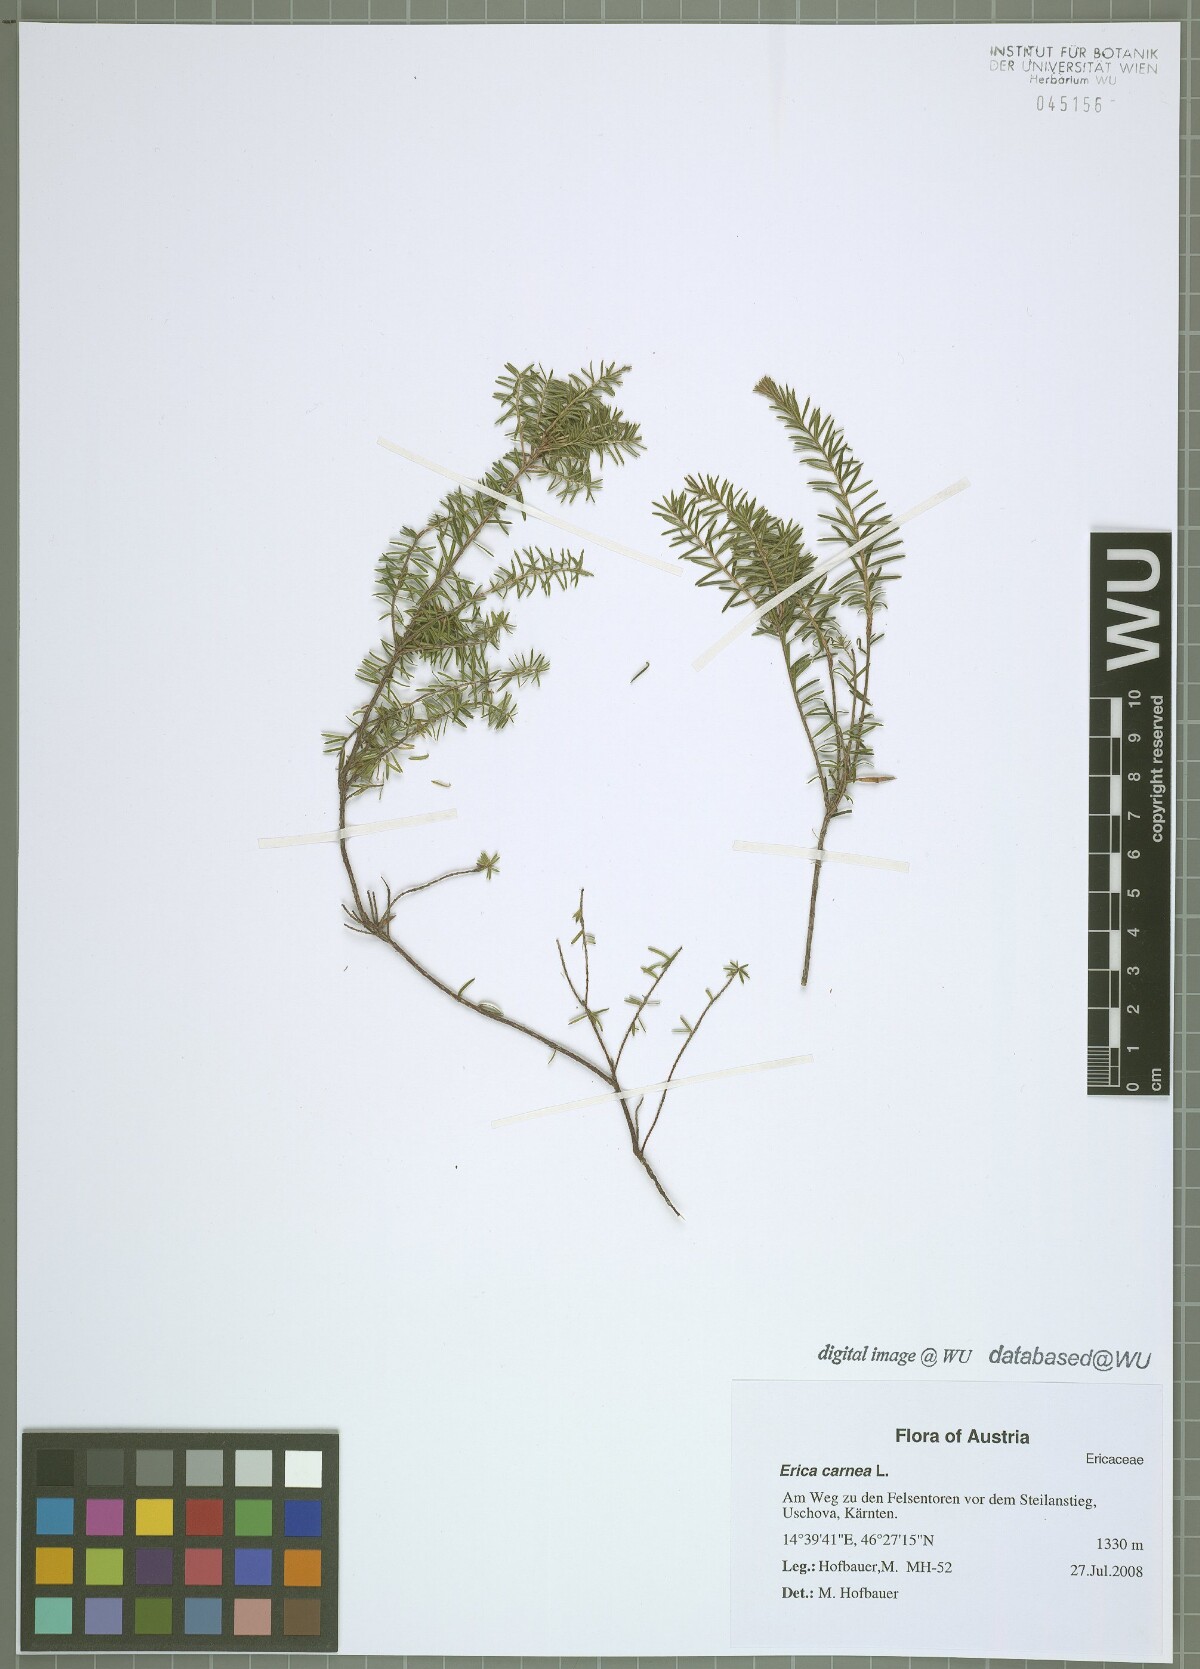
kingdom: Plantae
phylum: Tracheophyta
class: Magnoliopsida
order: Ericales
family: Ericaceae
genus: Erica
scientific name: Erica carnea
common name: Winter heath
